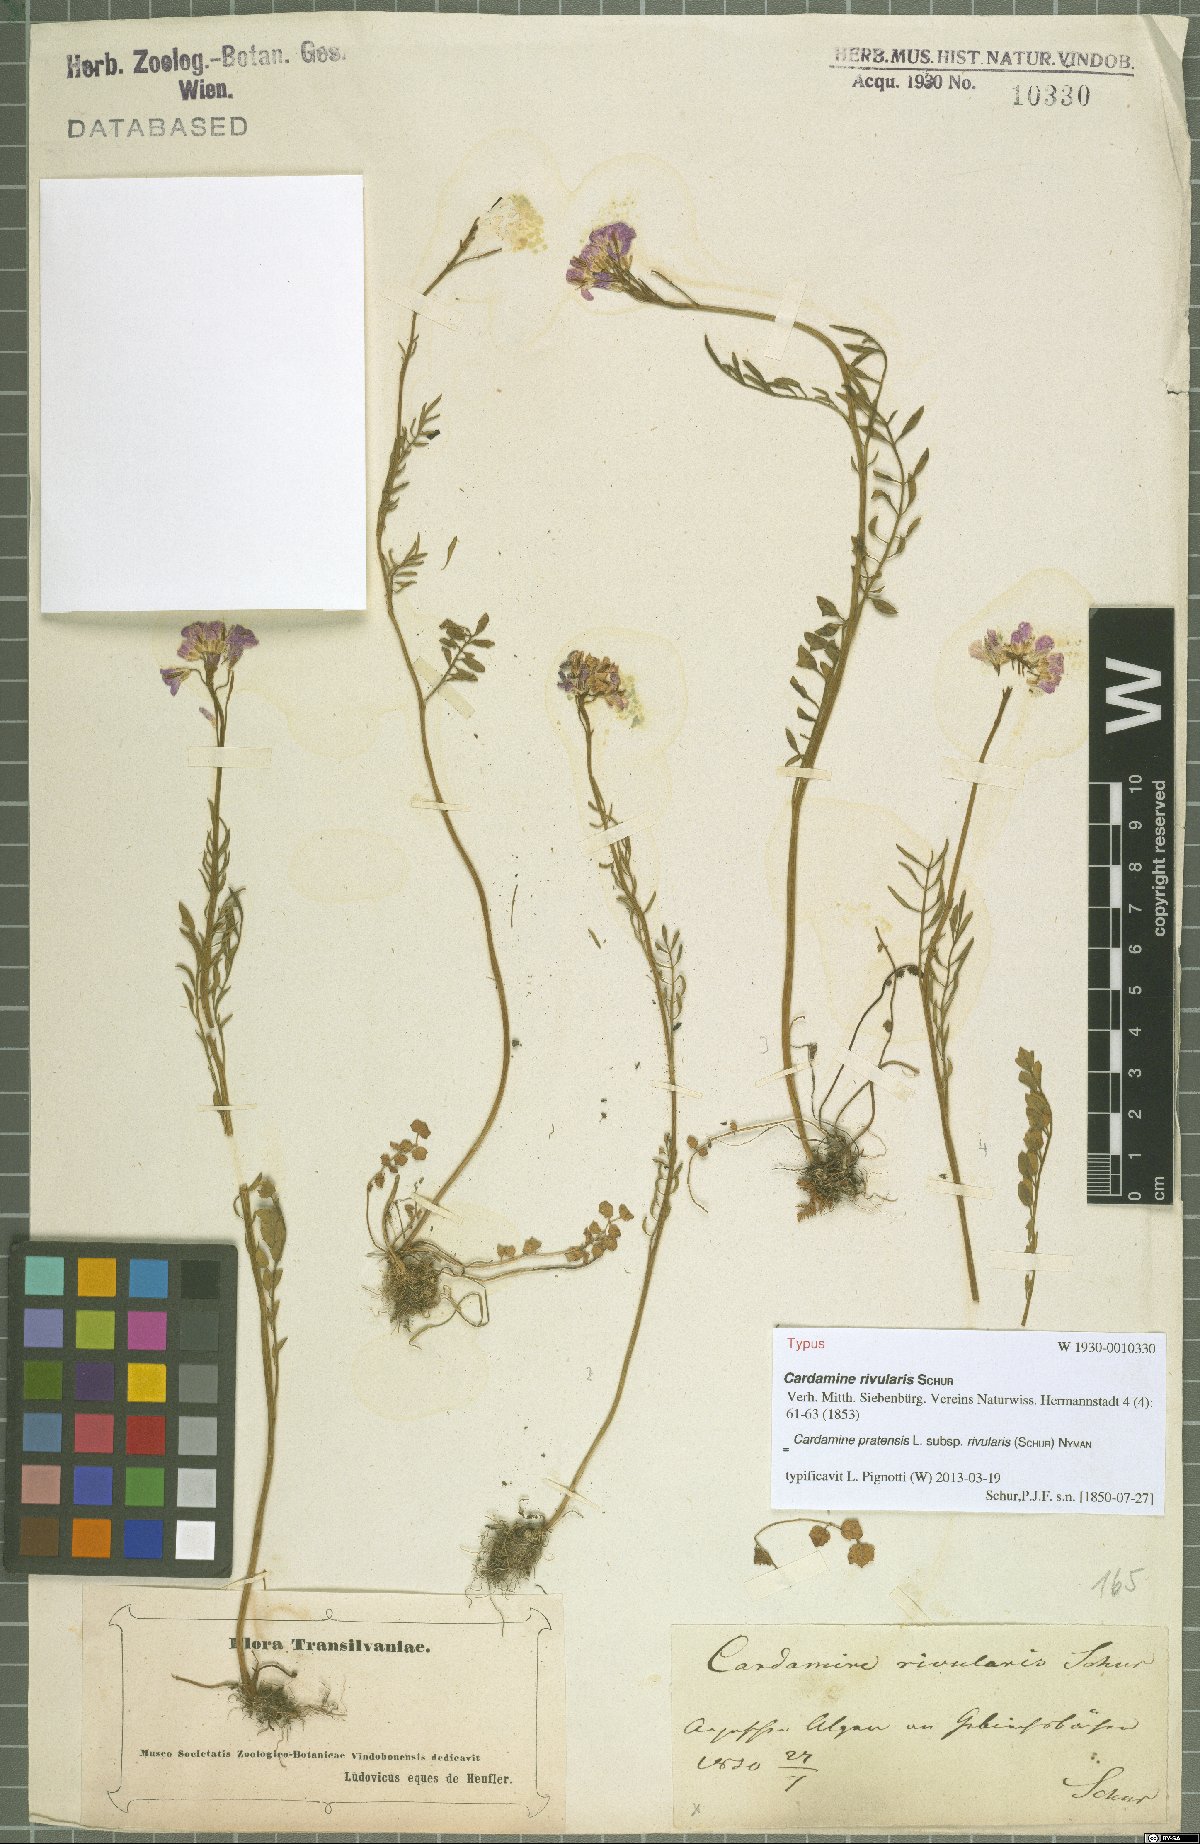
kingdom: Plantae
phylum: Tracheophyta
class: Magnoliopsida
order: Brassicales
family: Brassicaceae
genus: Cardamine
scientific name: Cardamine pratensis
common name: Cuckoo flower
